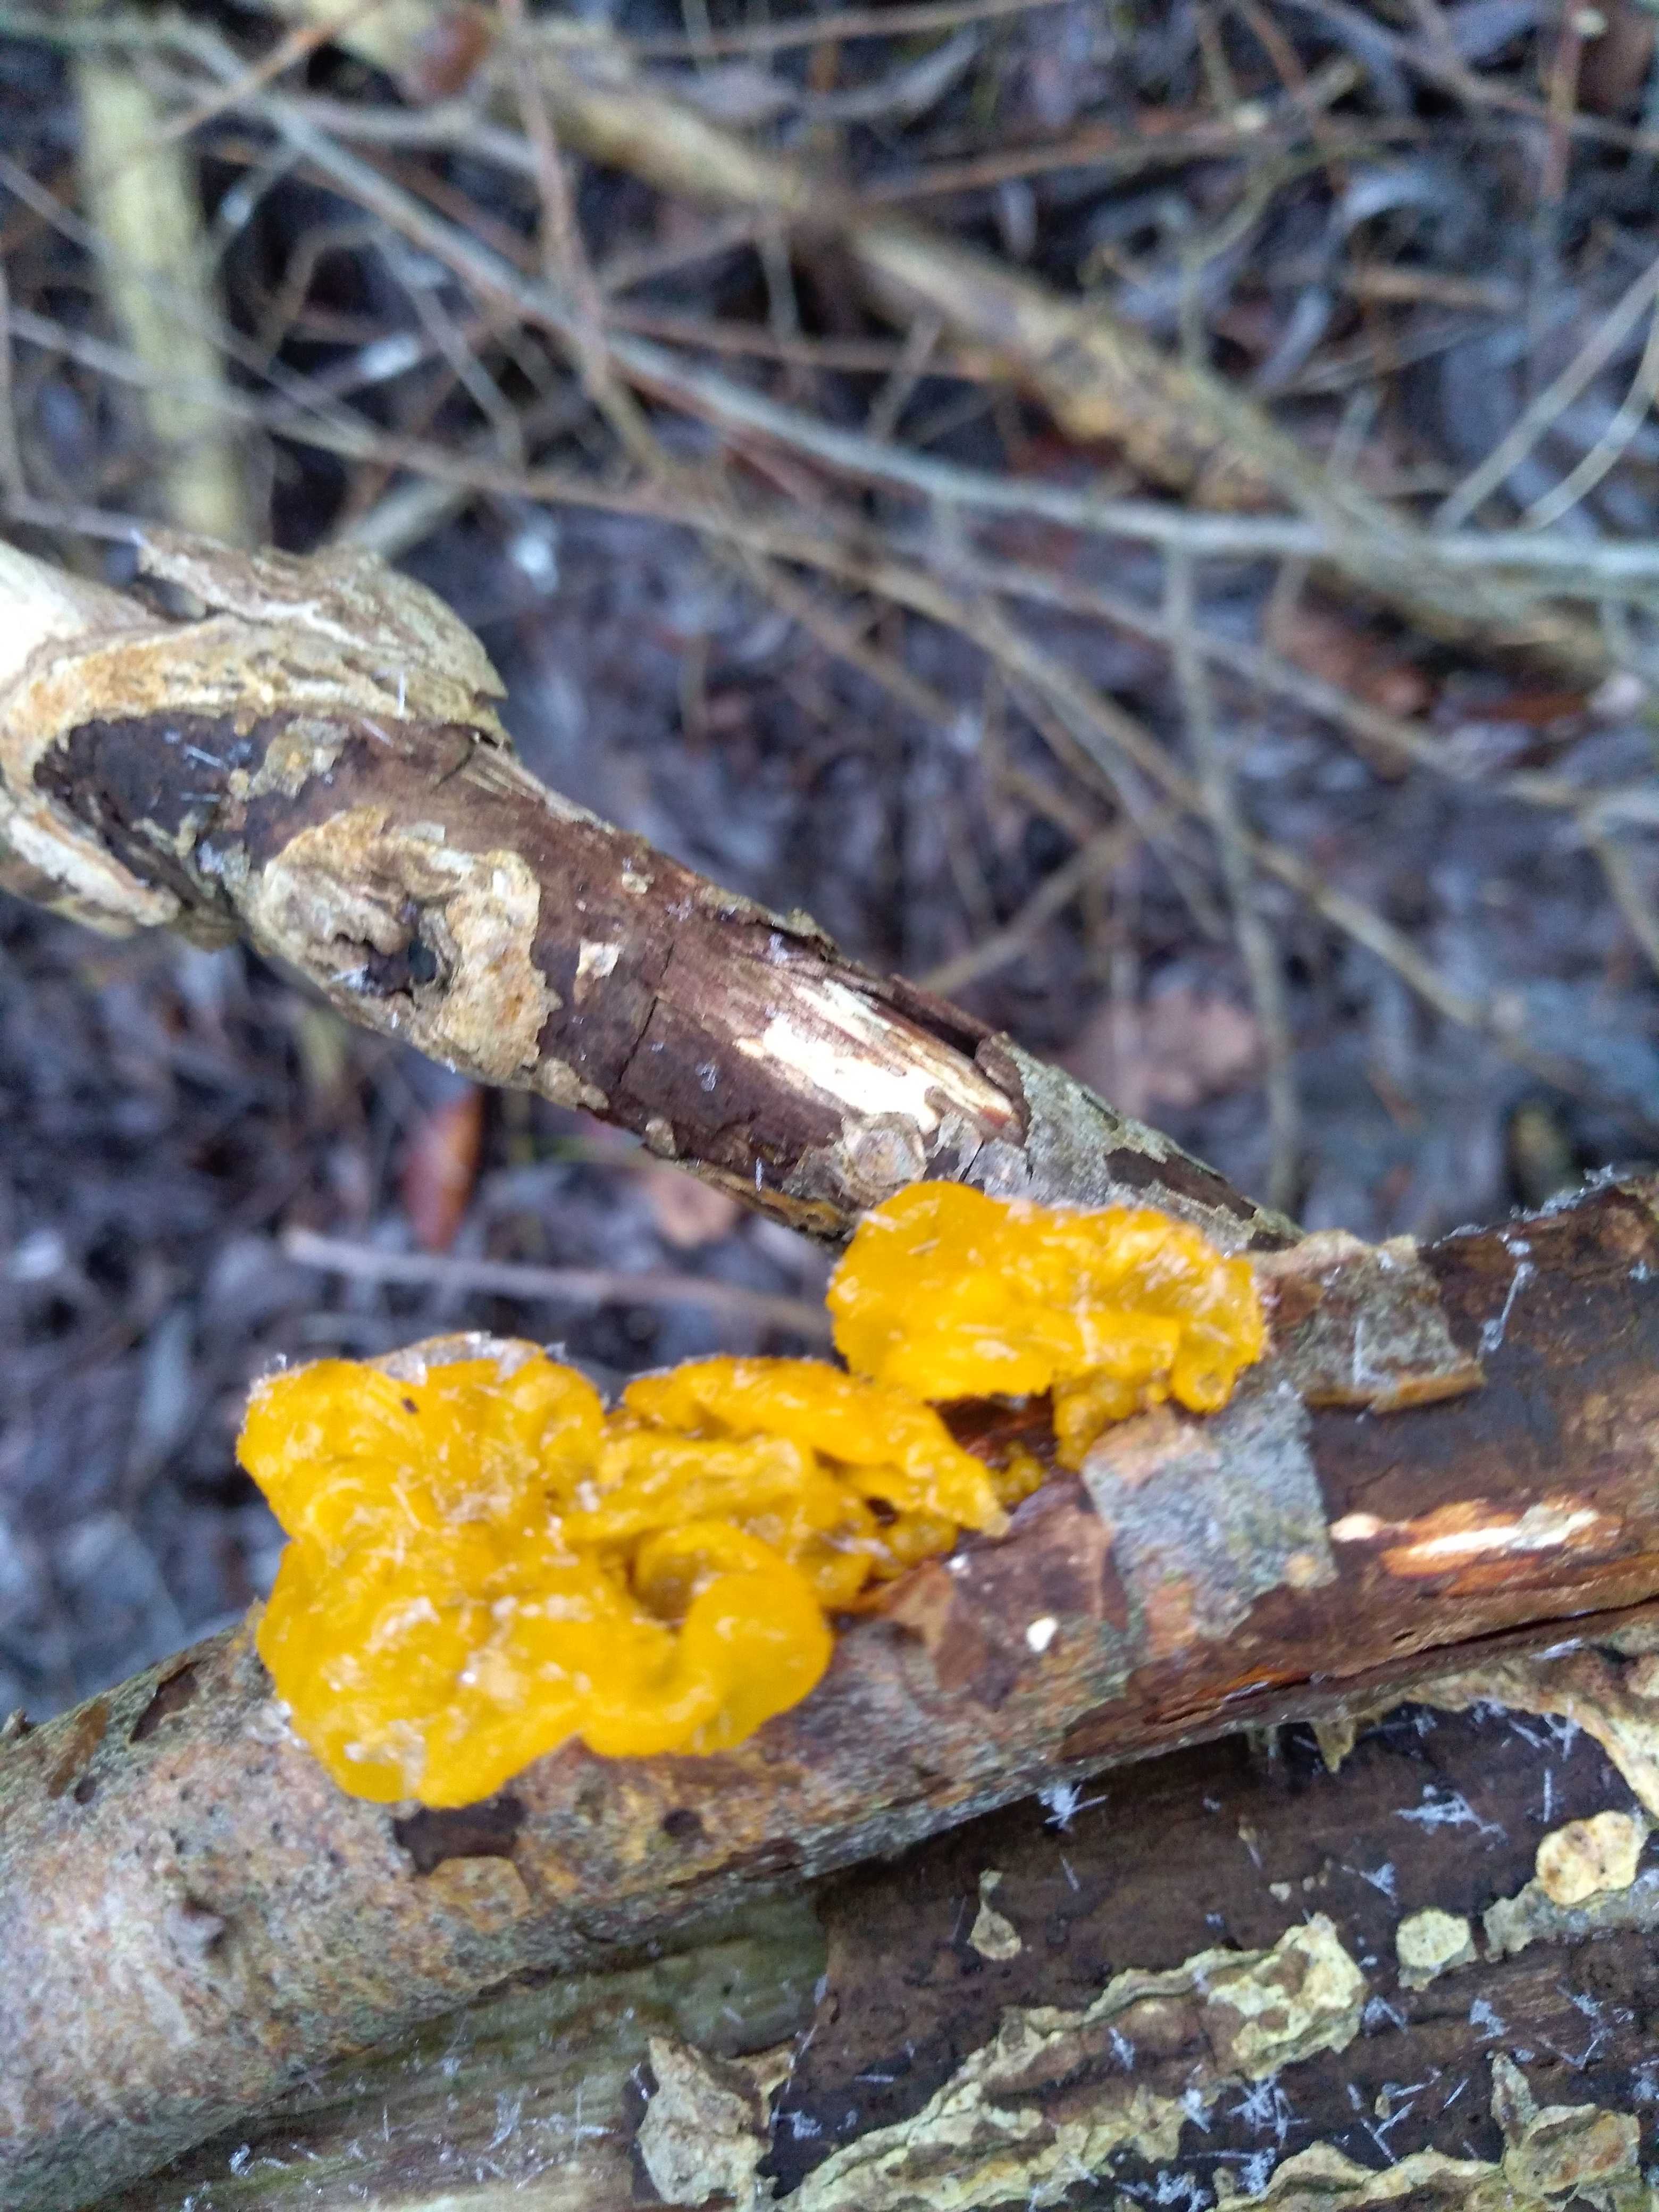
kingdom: Fungi
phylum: Basidiomycota
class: Tremellomycetes
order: Tremellales
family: Tremellaceae
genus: Tremella
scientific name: Tremella mesenterica
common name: gul bævresvamp
